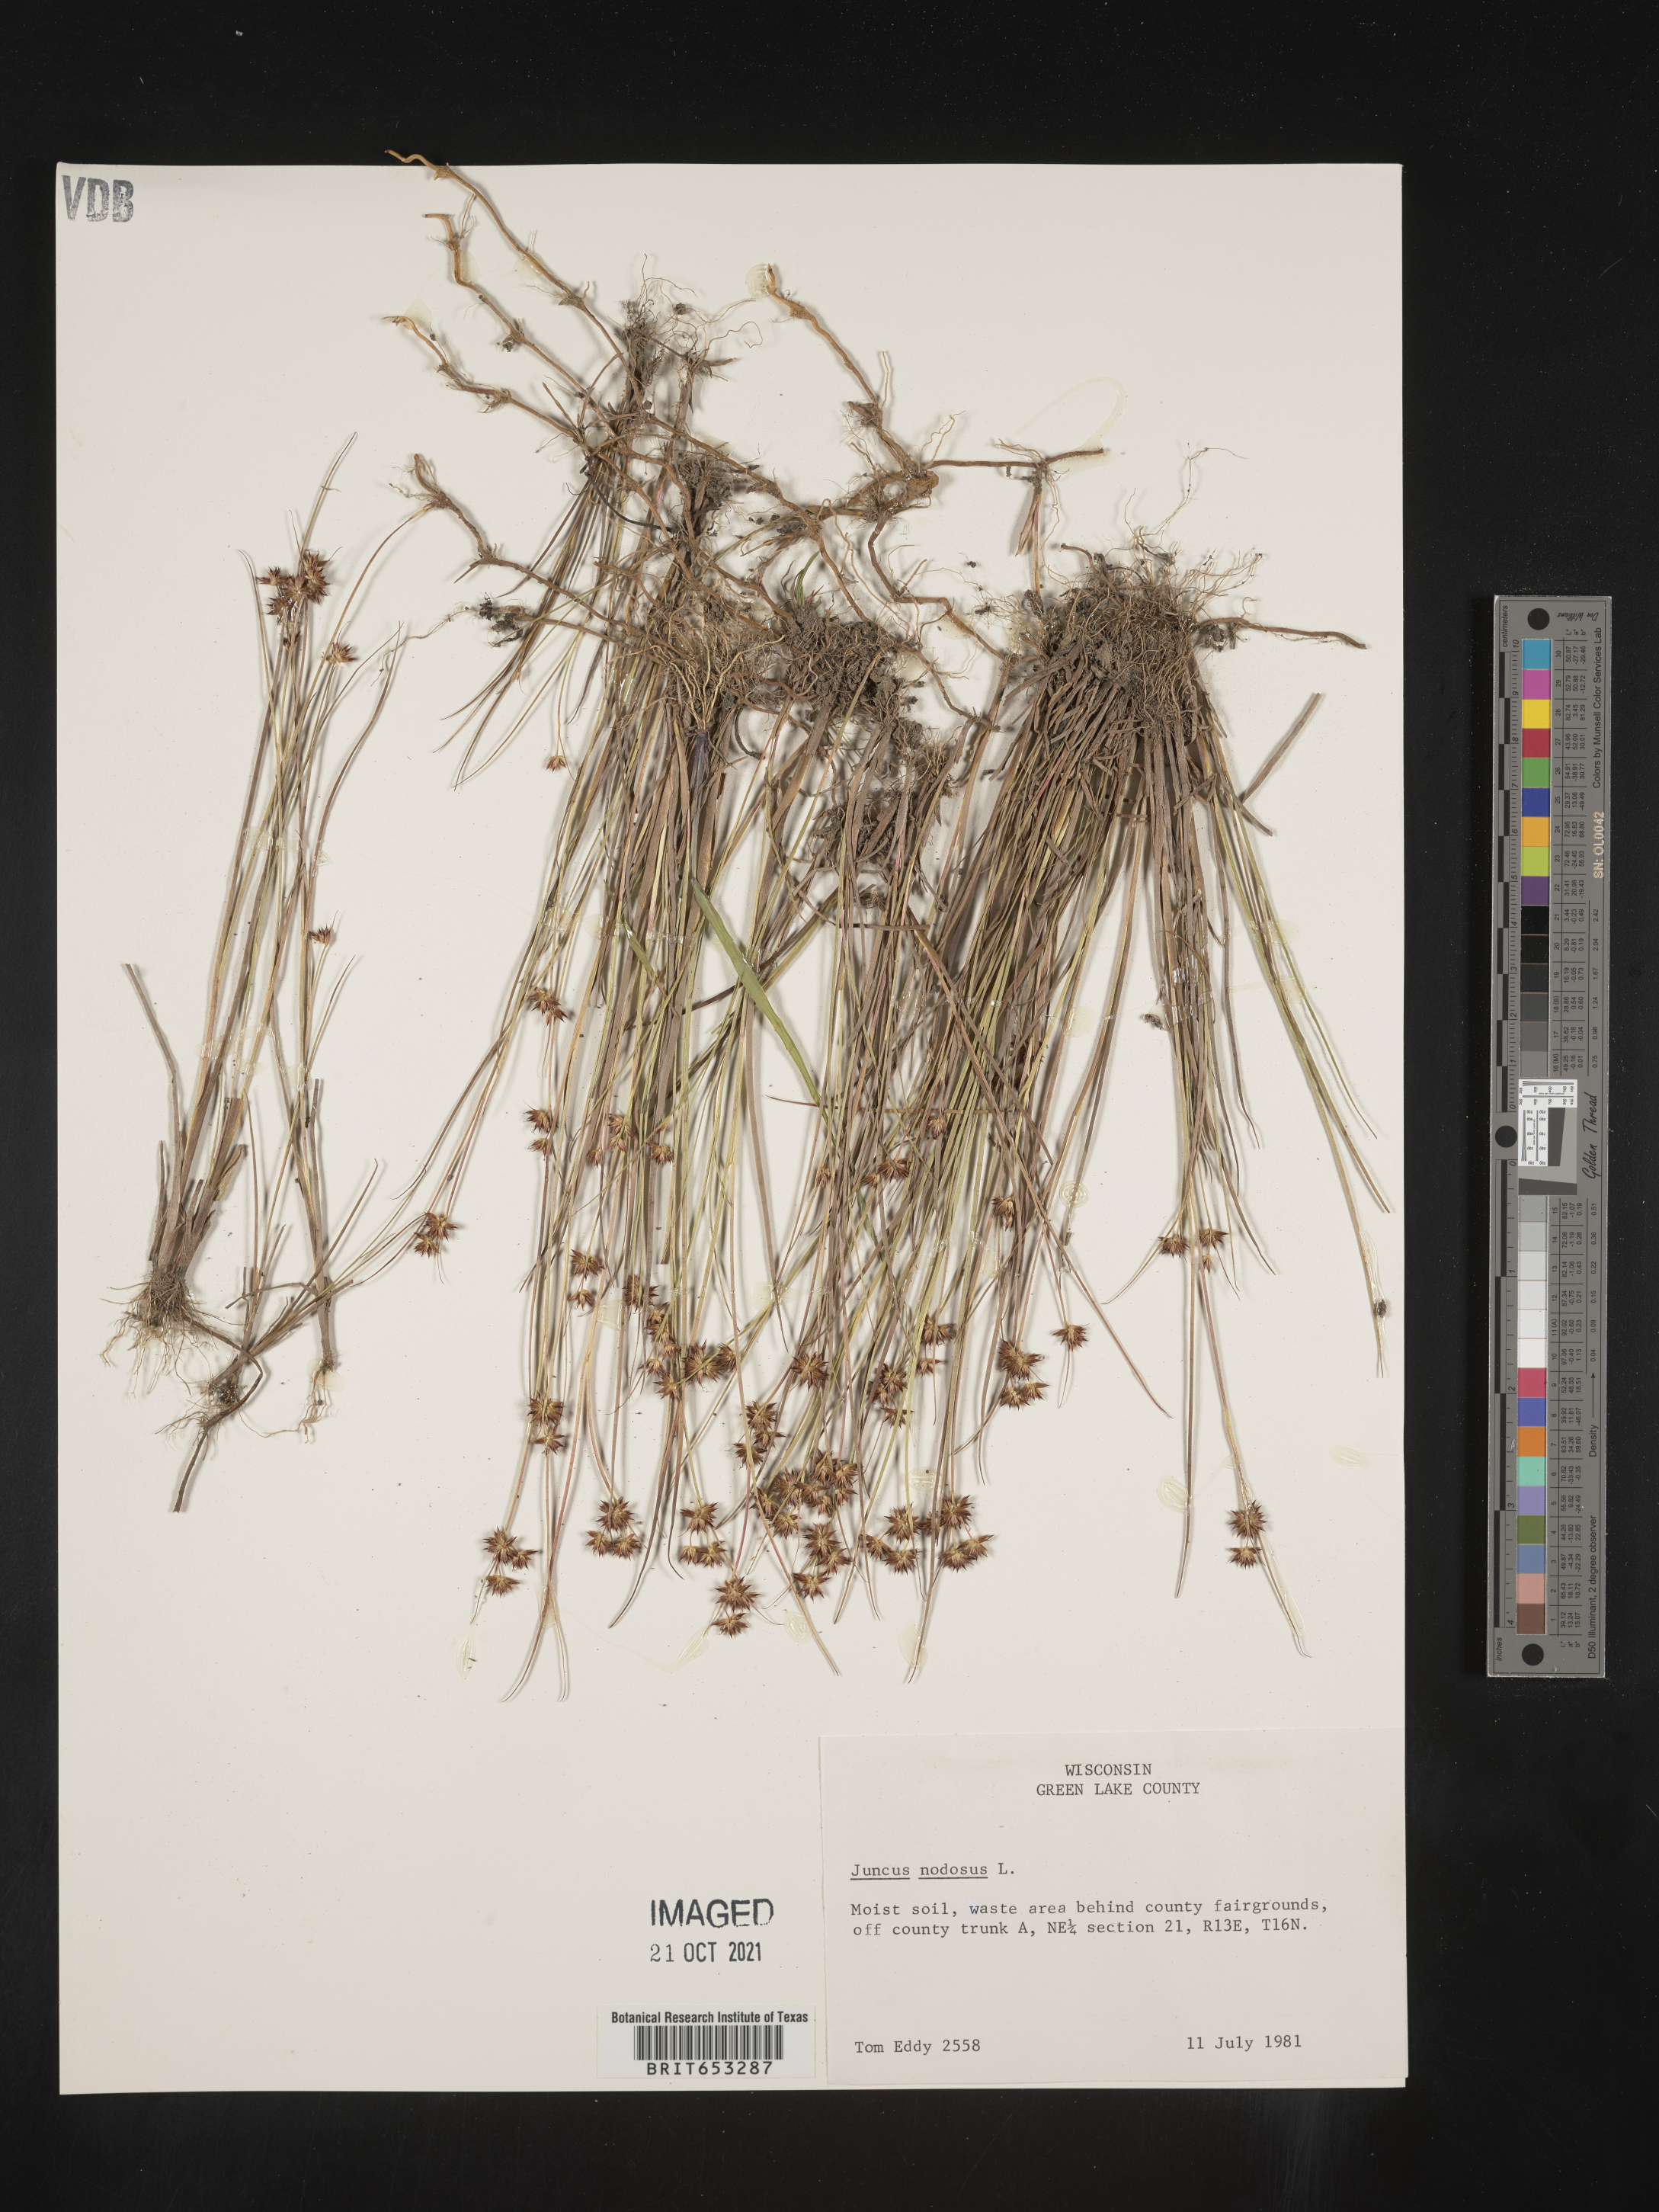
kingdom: Plantae
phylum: Tracheophyta
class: Liliopsida
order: Poales
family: Juncaceae
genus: Juncus
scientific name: Juncus nodosus
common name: Knotted rush
